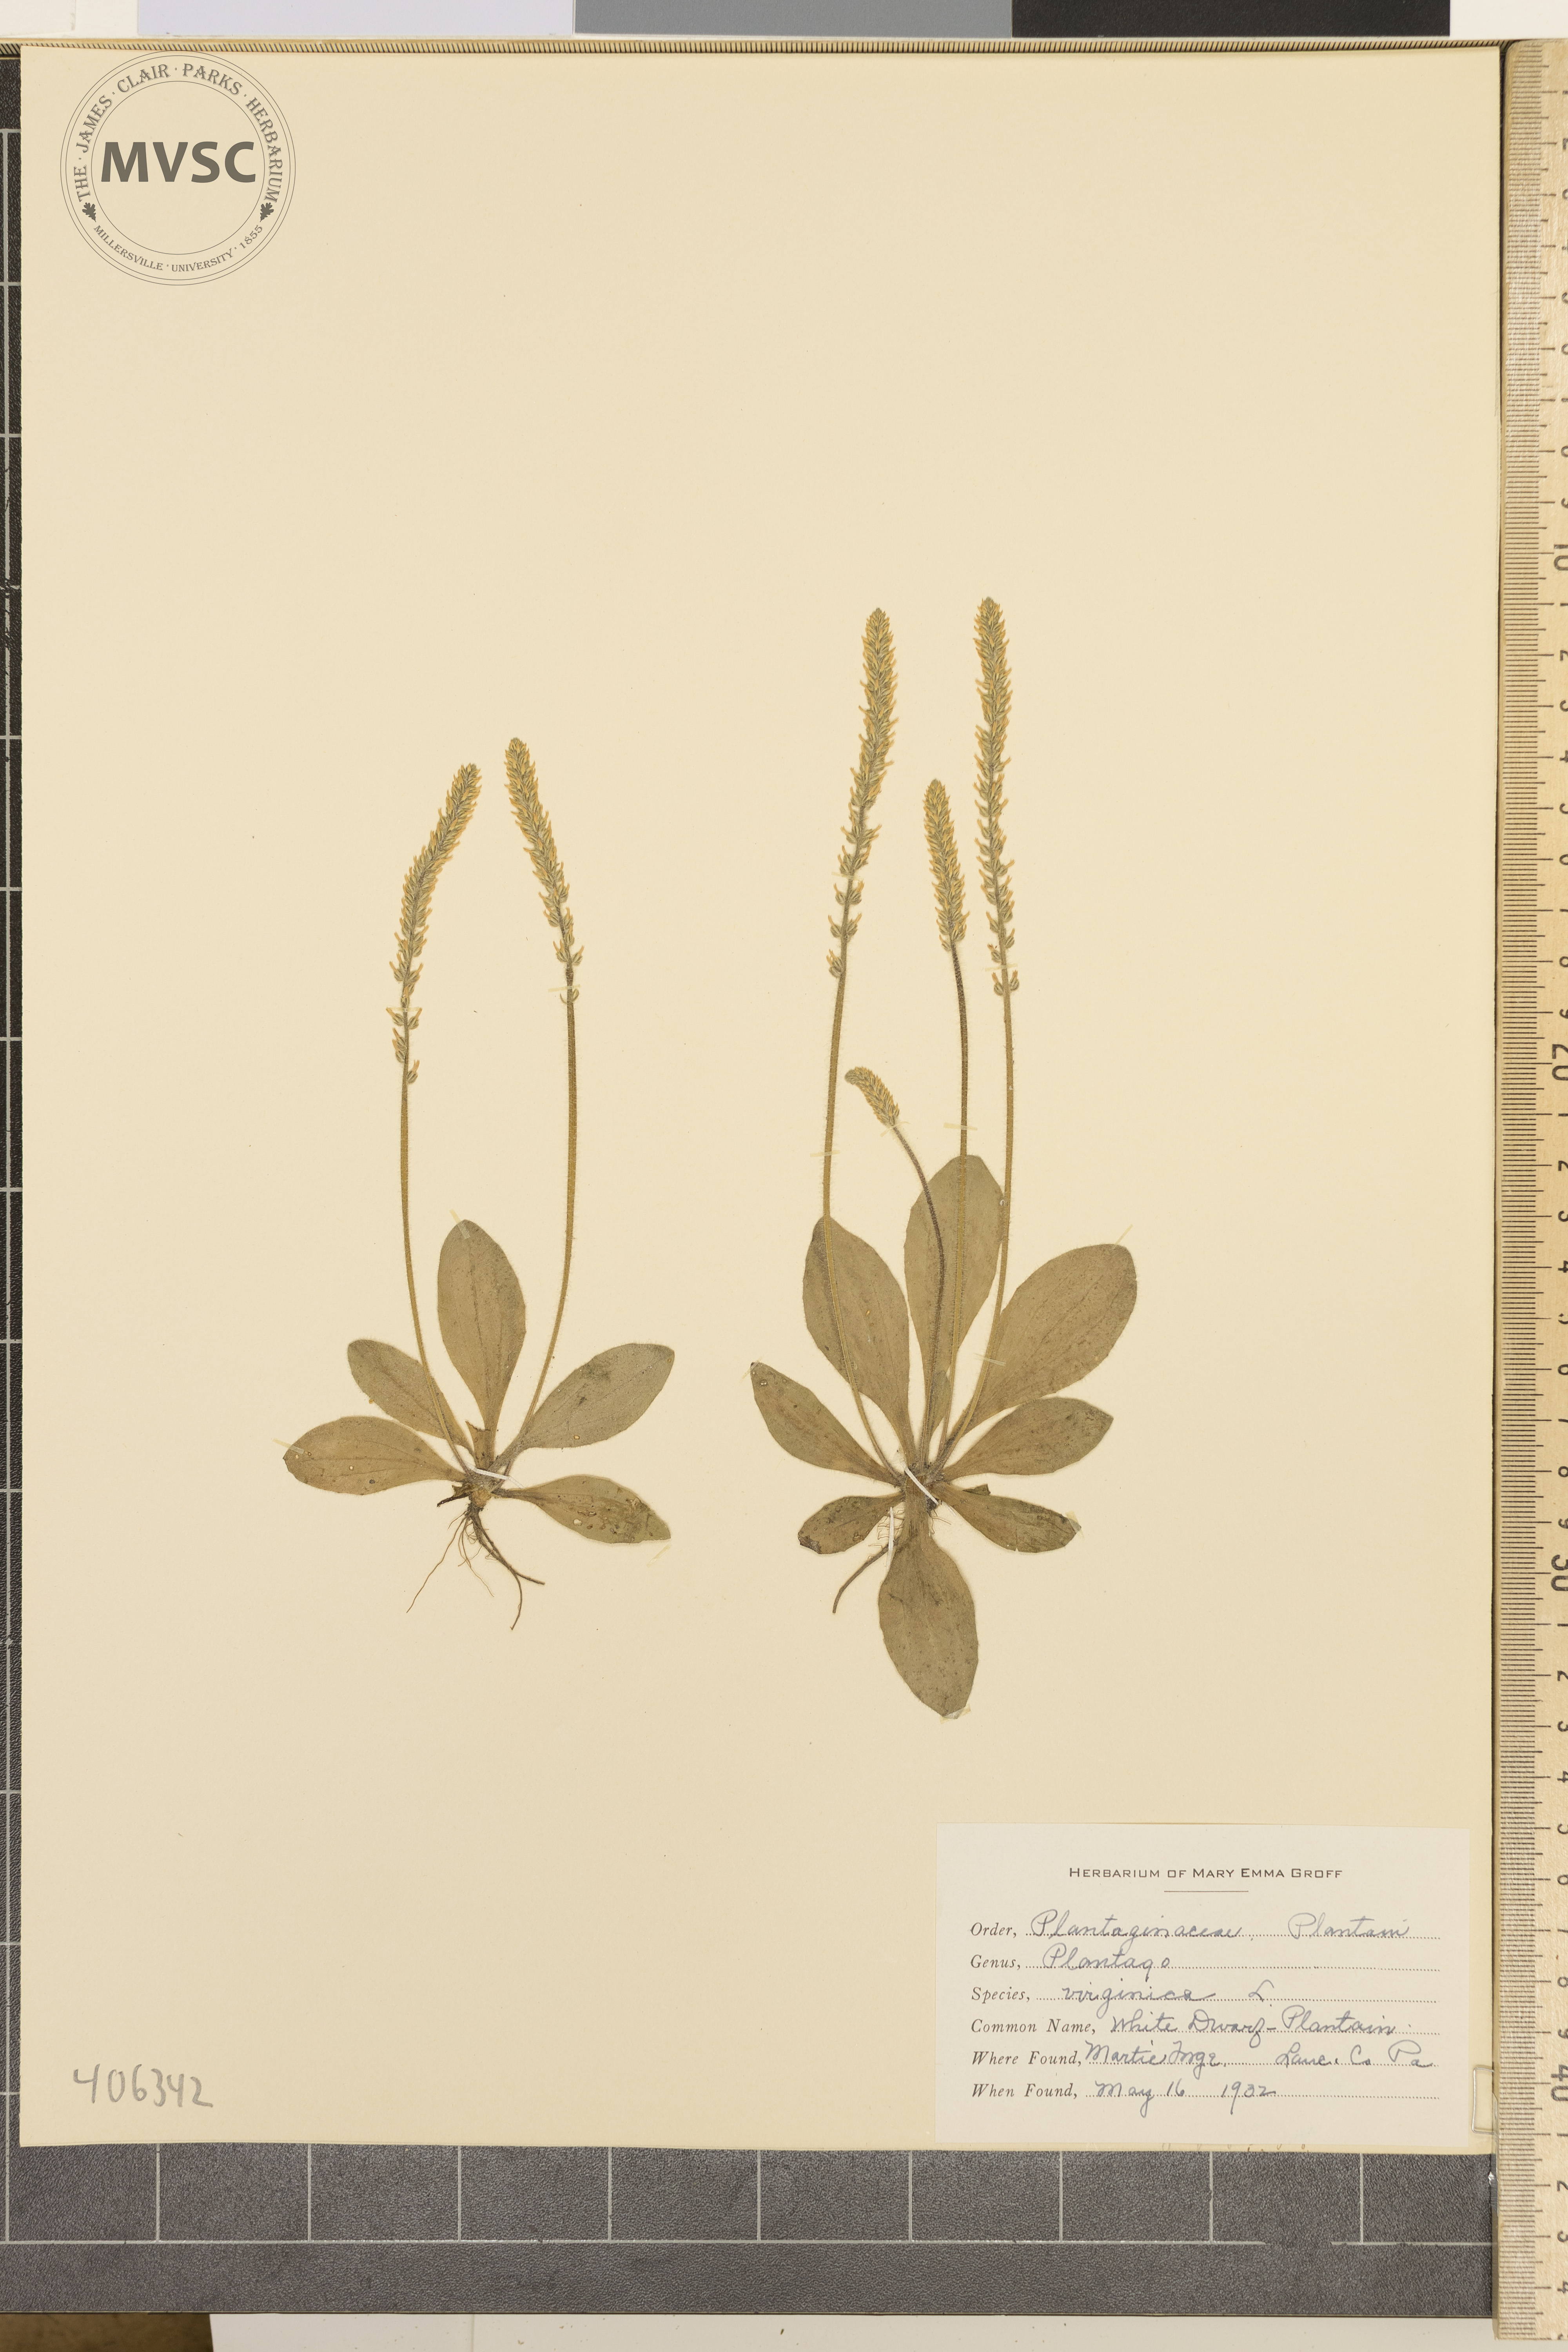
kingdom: Plantae
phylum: Tracheophyta
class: Magnoliopsida
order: Lamiales
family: Plantaginaceae
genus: Plantago
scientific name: Plantago virginica
